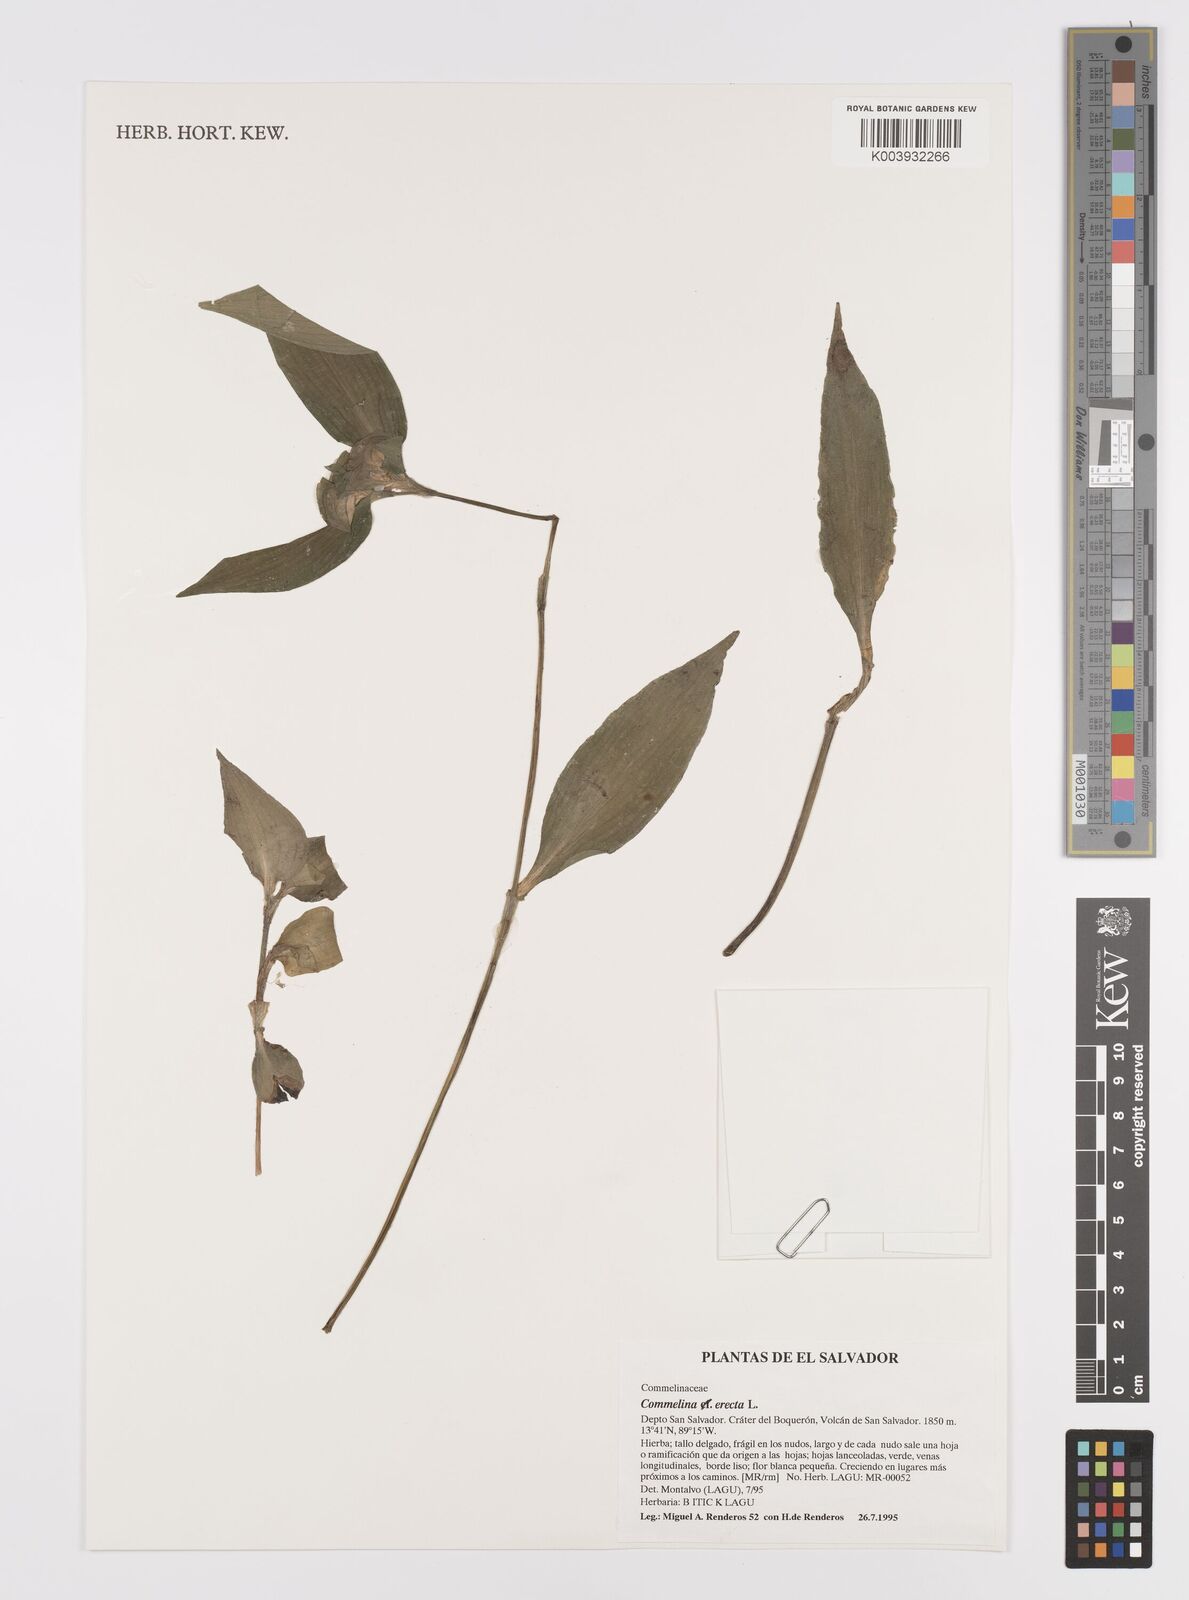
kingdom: Plantae
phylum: Tracheophyta
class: Liliopsida
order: Commelinales
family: Commelinaceae
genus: Commelina
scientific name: Commelina erecta
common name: Blousel blommetjie
